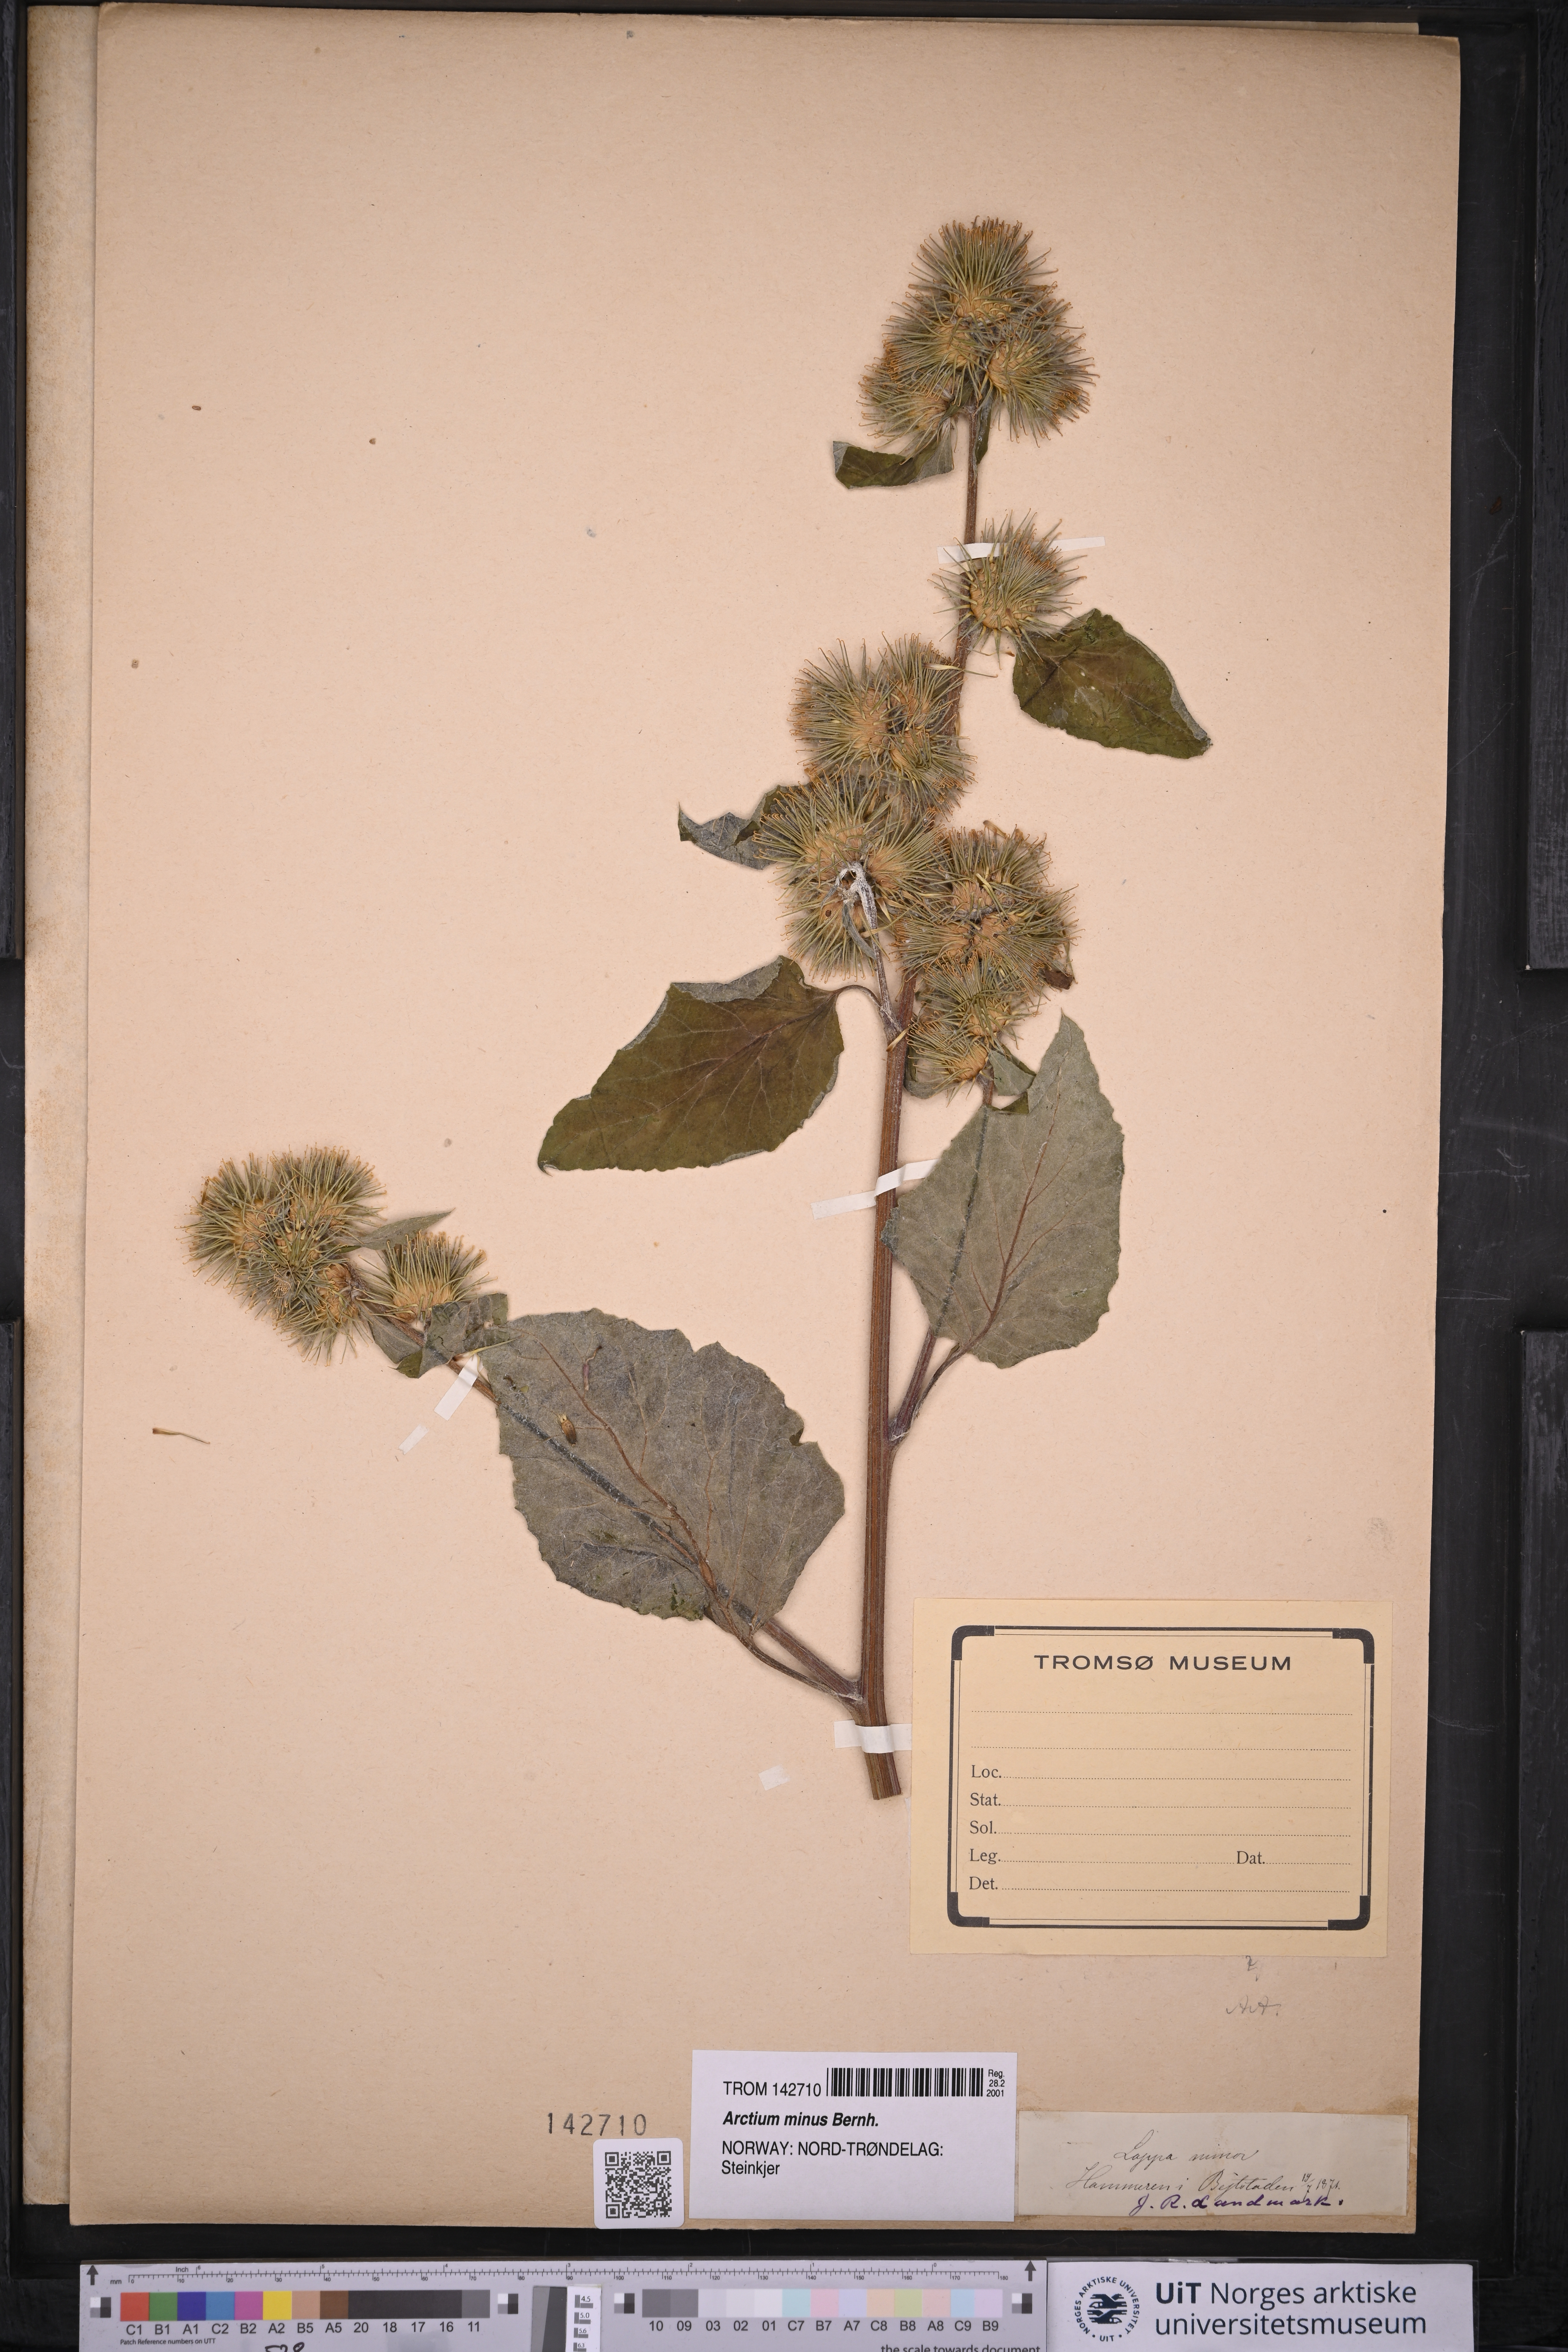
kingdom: Plantae
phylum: Tracheophyta
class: Magnoliopsida
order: Asterales
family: Asteraceae
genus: Arctium
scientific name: Arctium minus
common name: Lesser burdock
